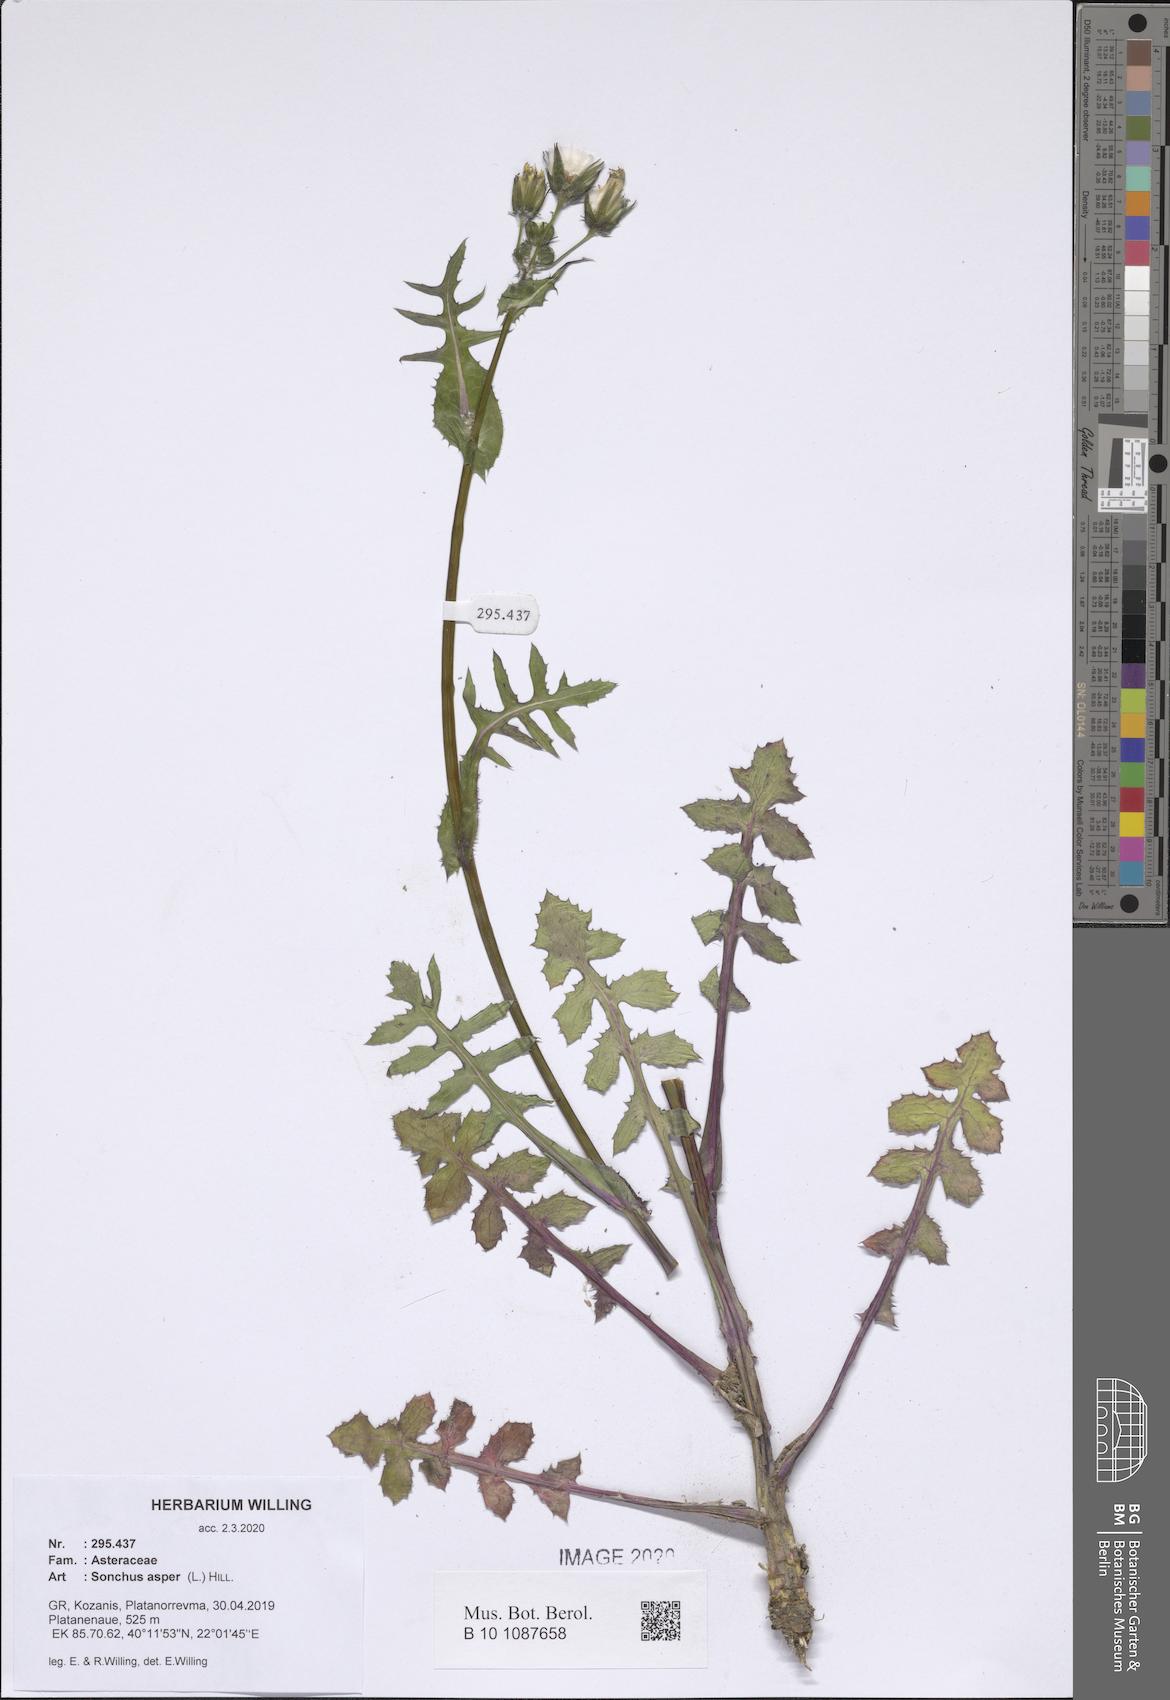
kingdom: Plantae
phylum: Tracheophyta
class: Magnoliopsida
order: Asterales
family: Asteraceae
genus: Sonchus
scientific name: Sonchus asper
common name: Prickly sow-thistle
